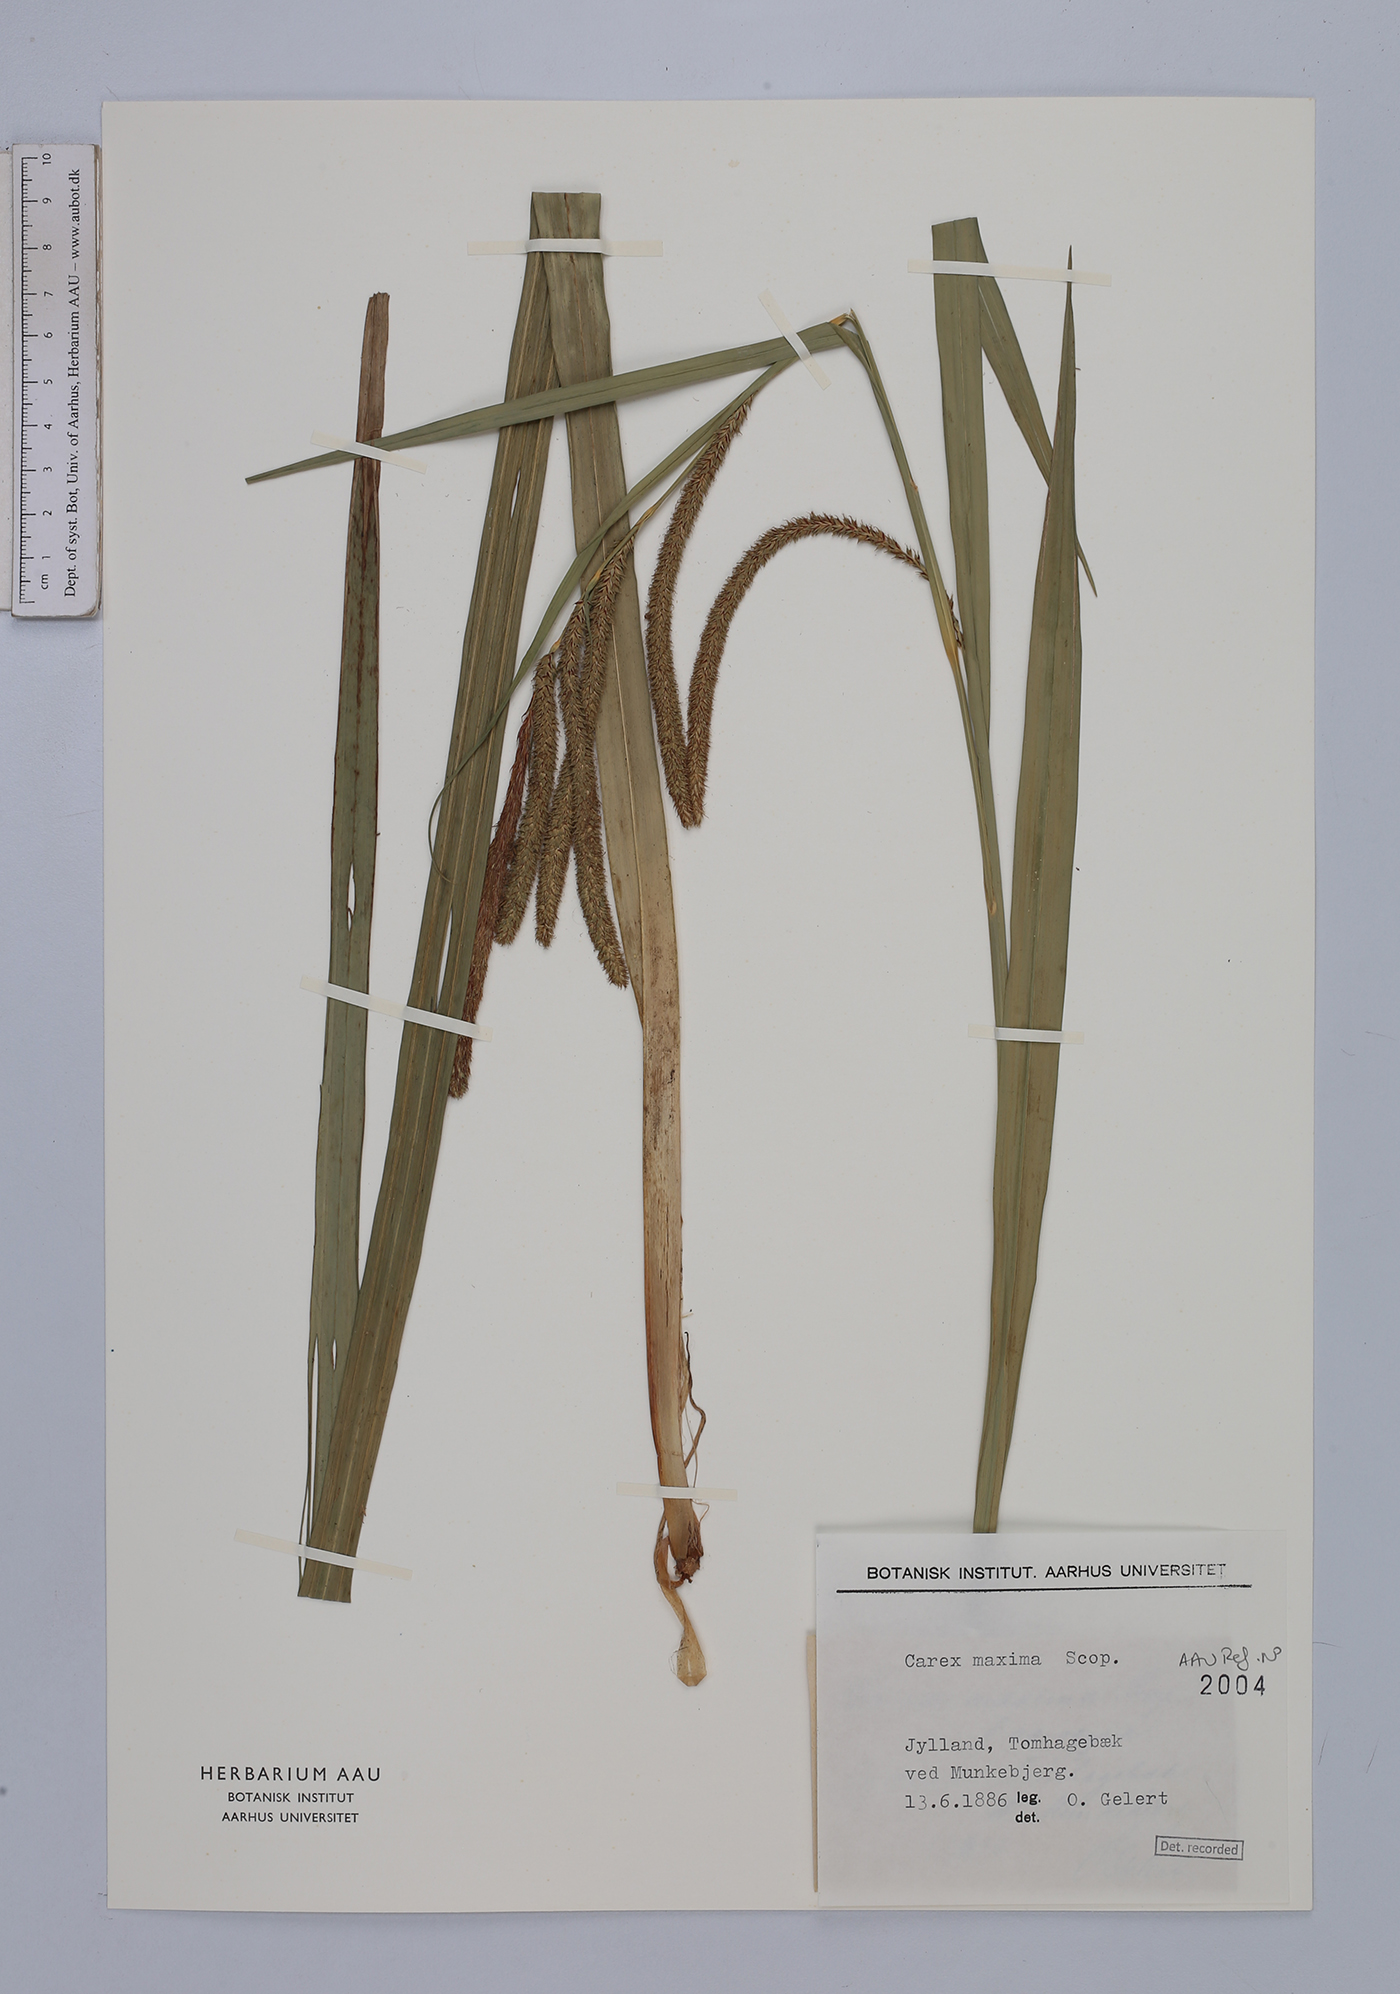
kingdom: Plantae
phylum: Tracheophyta
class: Liliopsida
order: Poales
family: Cyperaceae
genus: Carex
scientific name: Carex pendula
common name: Pendulous sedge
